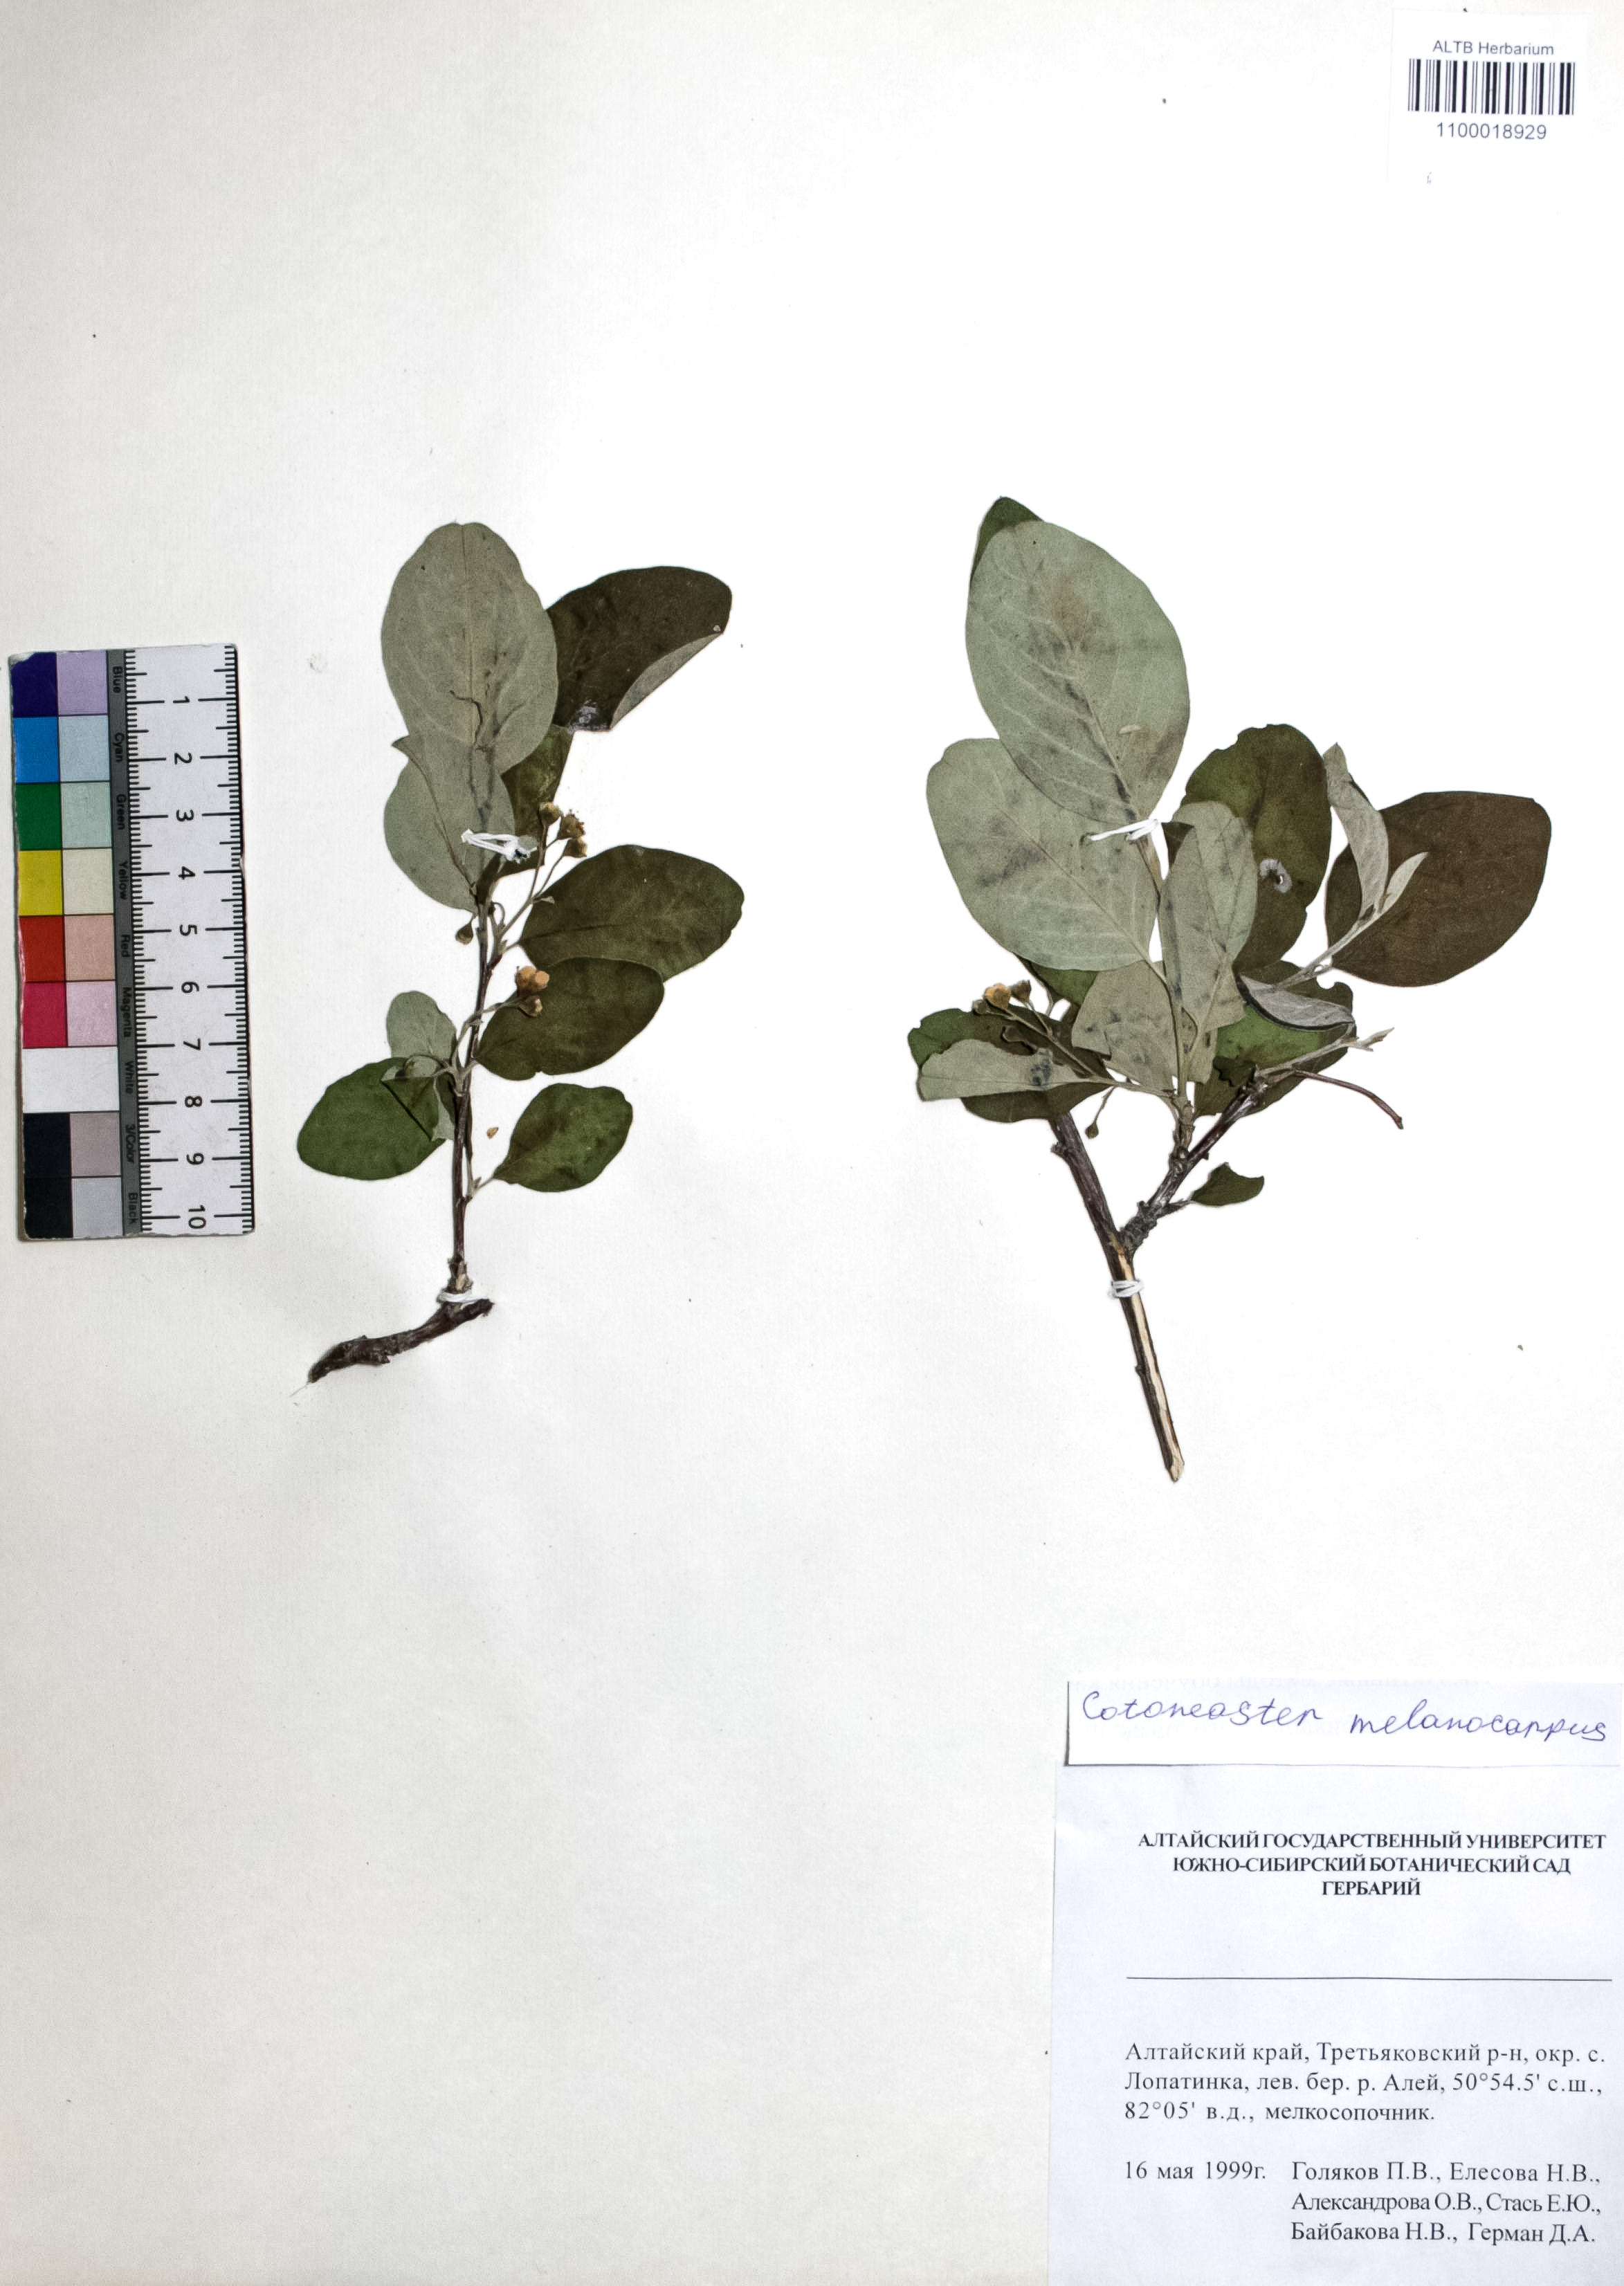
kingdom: Plantae
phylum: Tracheophyta
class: Magnoliopsida
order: Rosales
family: Rosaceae
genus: Cotoneaster
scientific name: Cotoneaster niger
